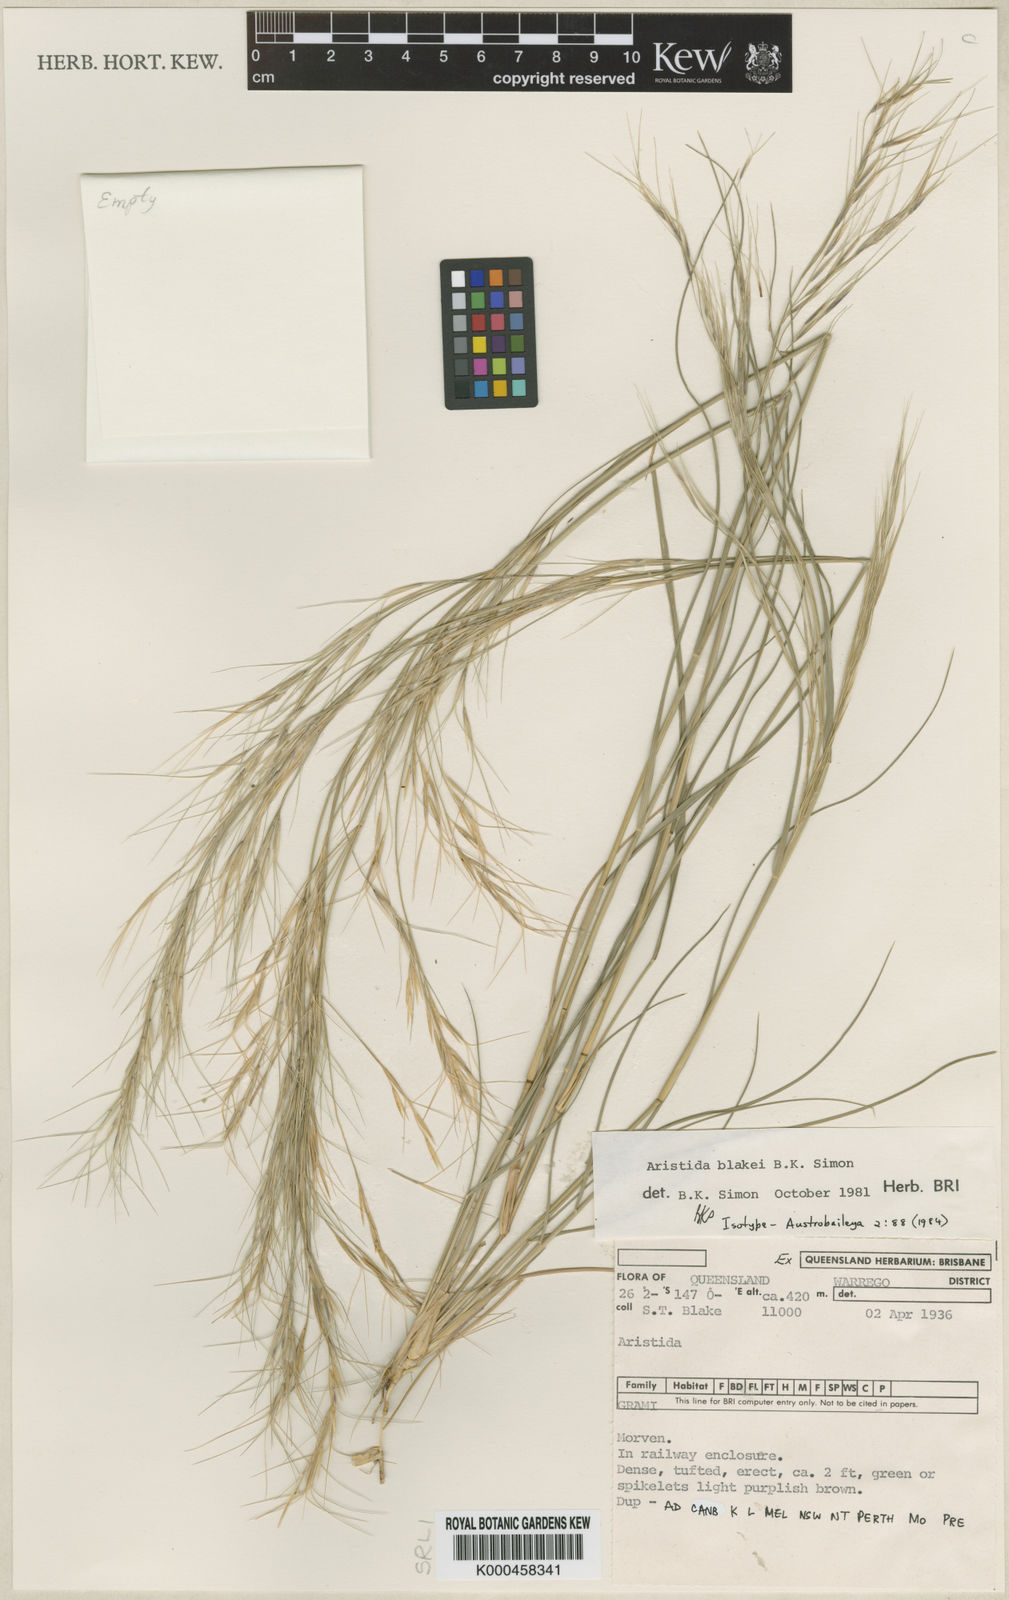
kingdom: Plantae
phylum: Tracheophyta
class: Liliopsida
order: Poales
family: Poaceae
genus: Aristida
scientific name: Aristida blakei
